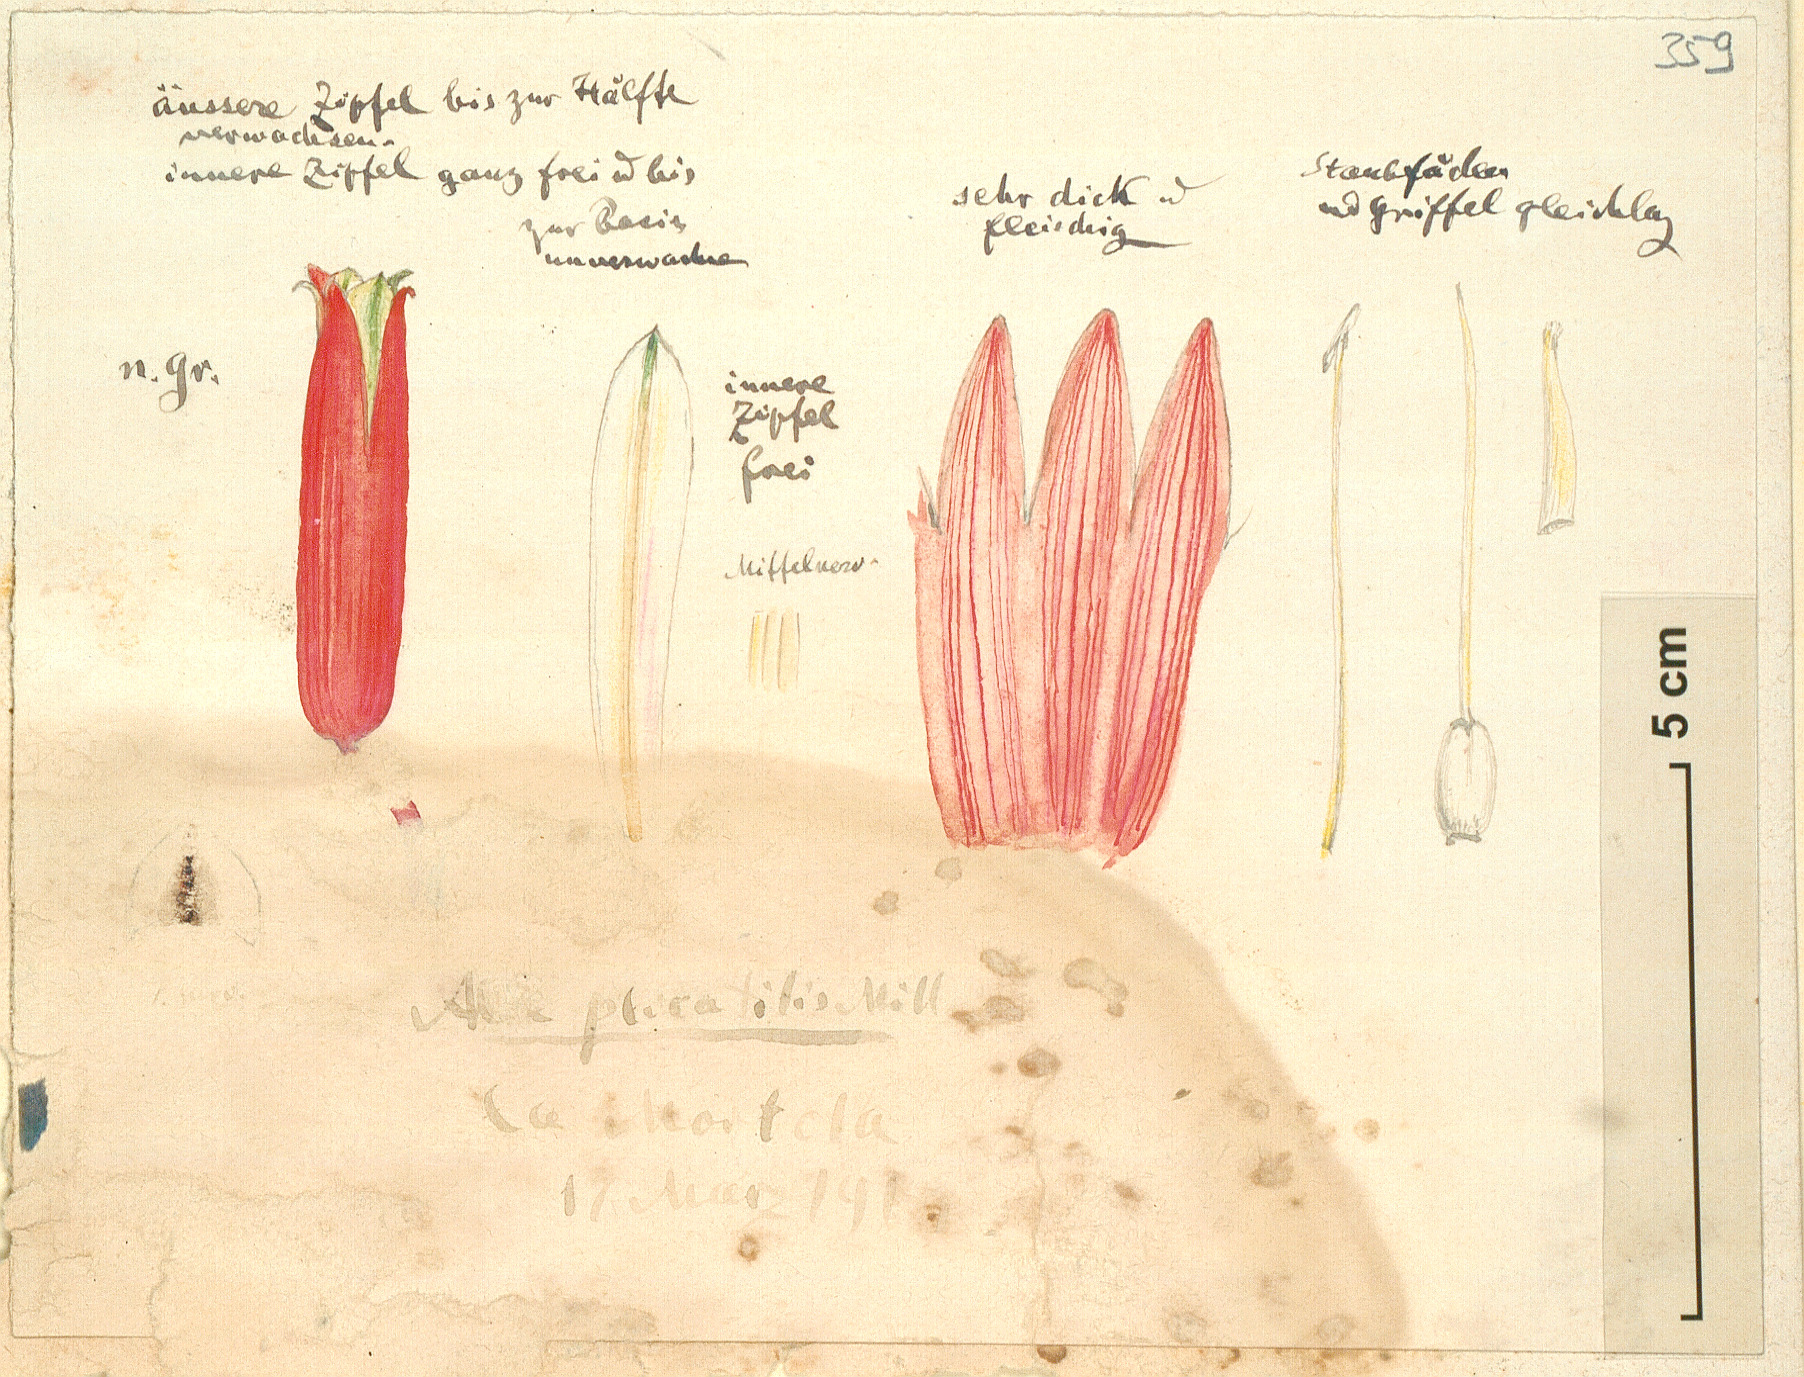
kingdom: Plantae
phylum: Tracheophyta
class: Liliopsida
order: Asparagales
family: Asphodelaceae
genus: Kumara
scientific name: Kumara plicatilis
